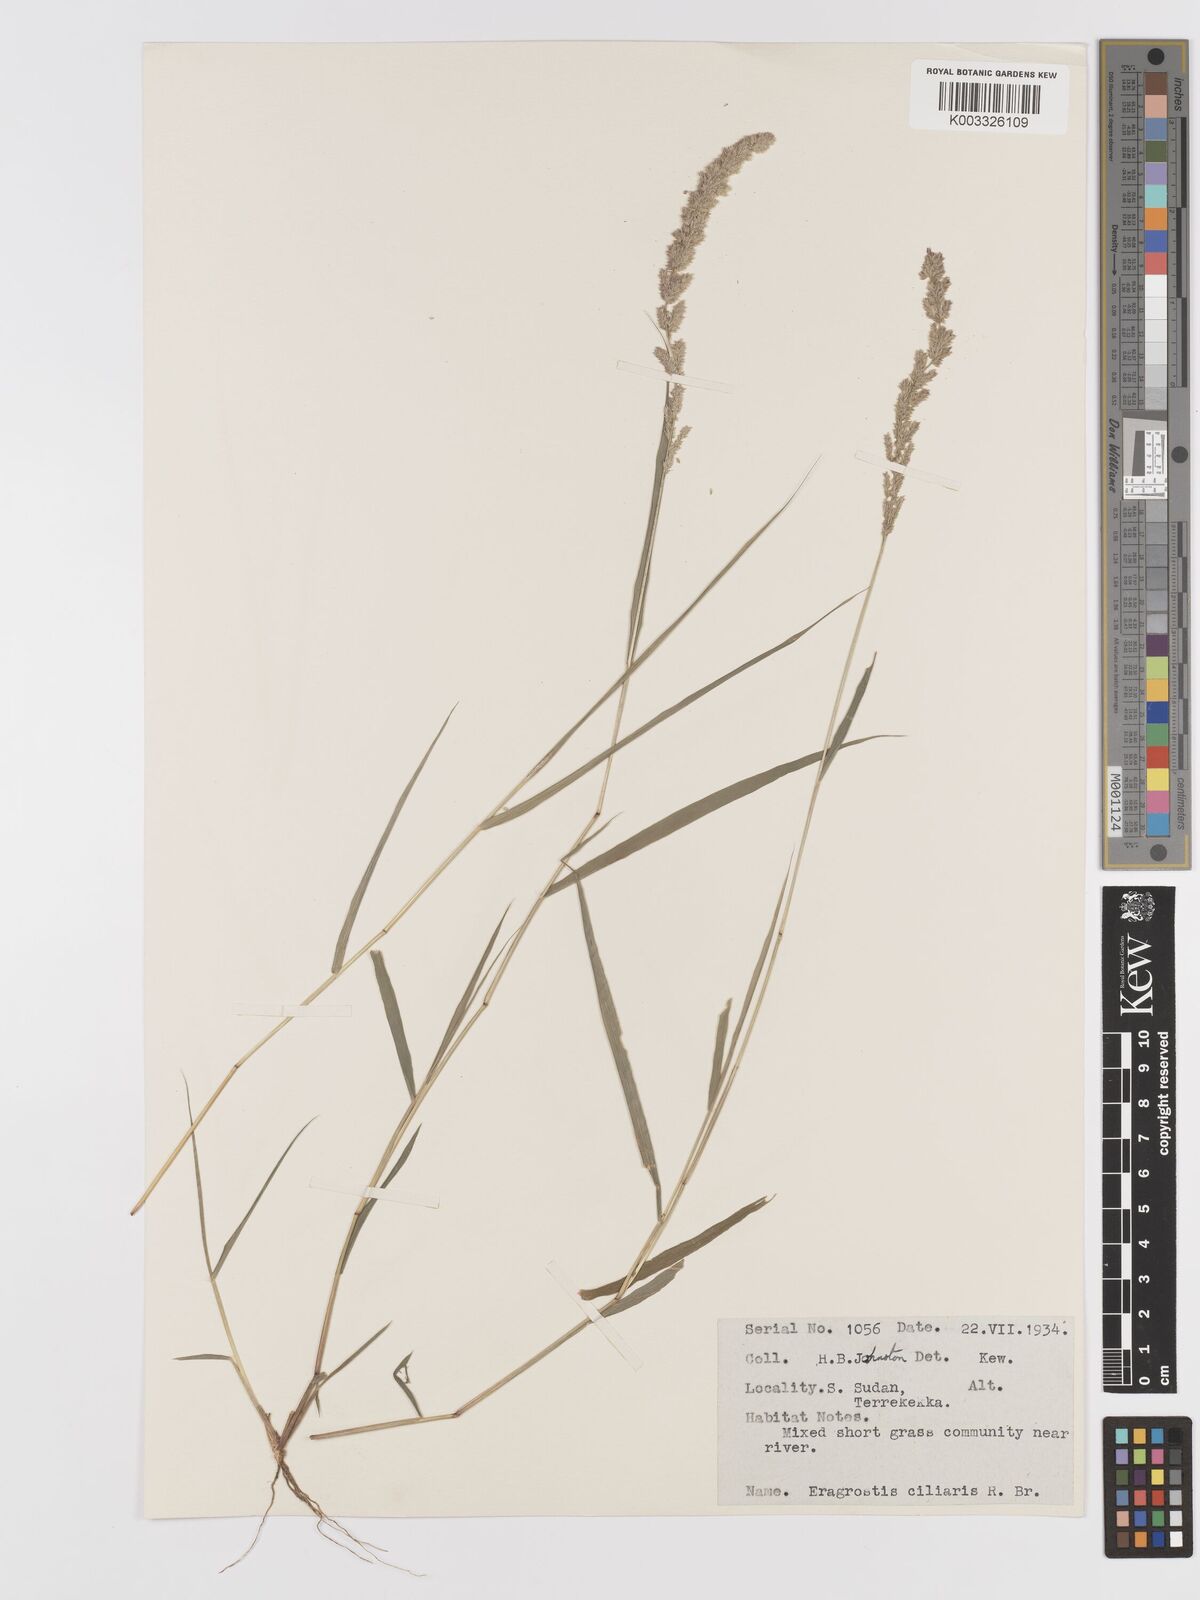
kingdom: Plantae
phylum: Tracheophyta
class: Liliopsida
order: Poales
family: Poaceae
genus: Eragrostis
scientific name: Eragrostis ciliaris
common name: Gophertail lovegrass
